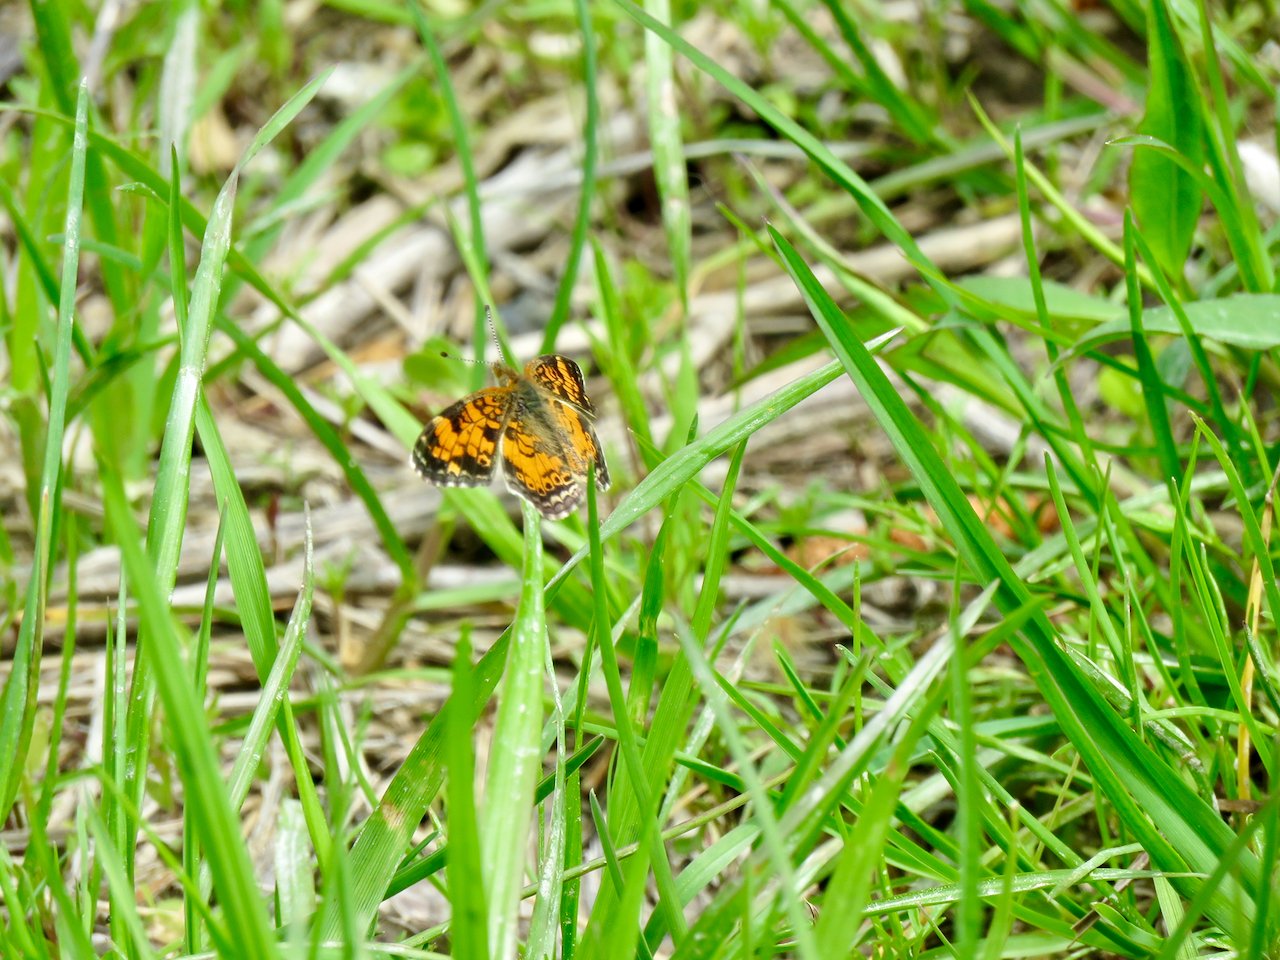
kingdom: Animalia
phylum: Arthropoda
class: Insecta
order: Lepidoptera
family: Nymphalidae
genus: Phyciodes
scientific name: Phyciodes tharos
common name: Pearl Crescent
